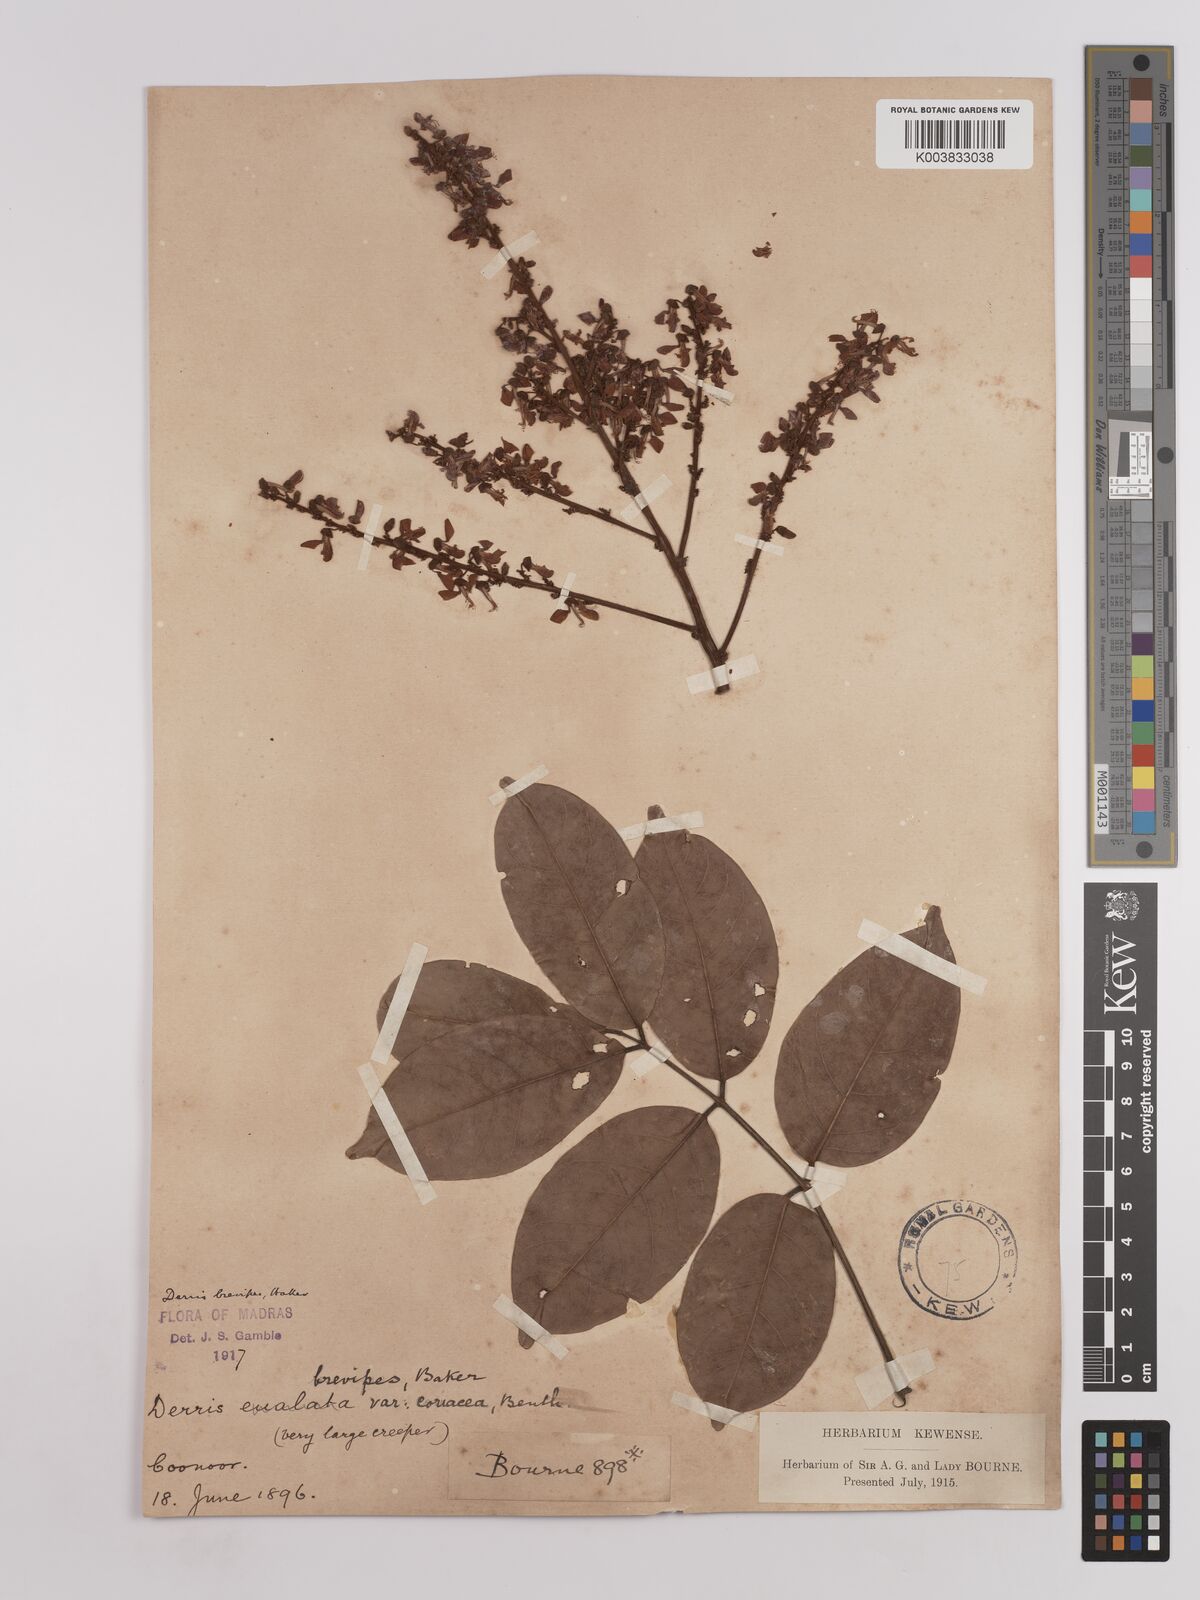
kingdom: Plantae
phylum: Tracheophyta
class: Magnoliopsida
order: Fabales
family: Fabaceae
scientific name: Fabaceae
